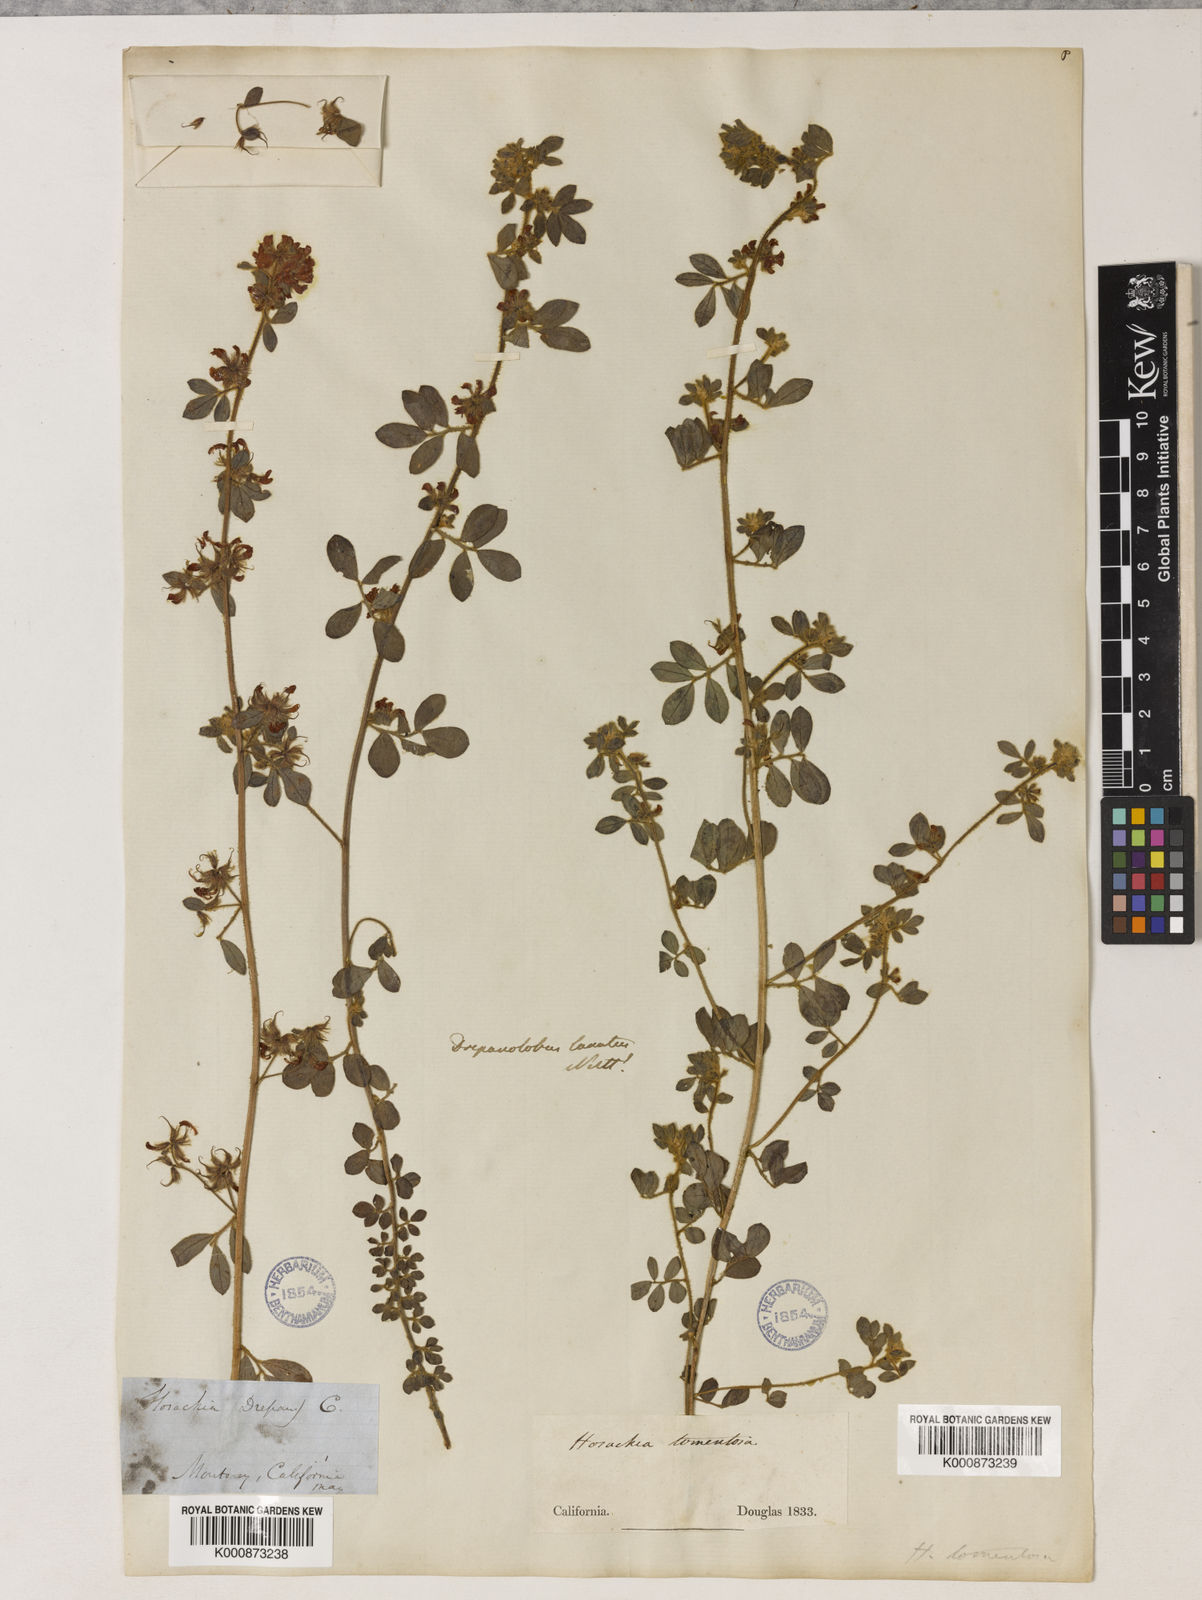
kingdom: Plantae
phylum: Tracheophyta
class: Magnoliopsida
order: Fabales
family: Fabaceae
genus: Acmispon
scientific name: Acmispon tomentosus
